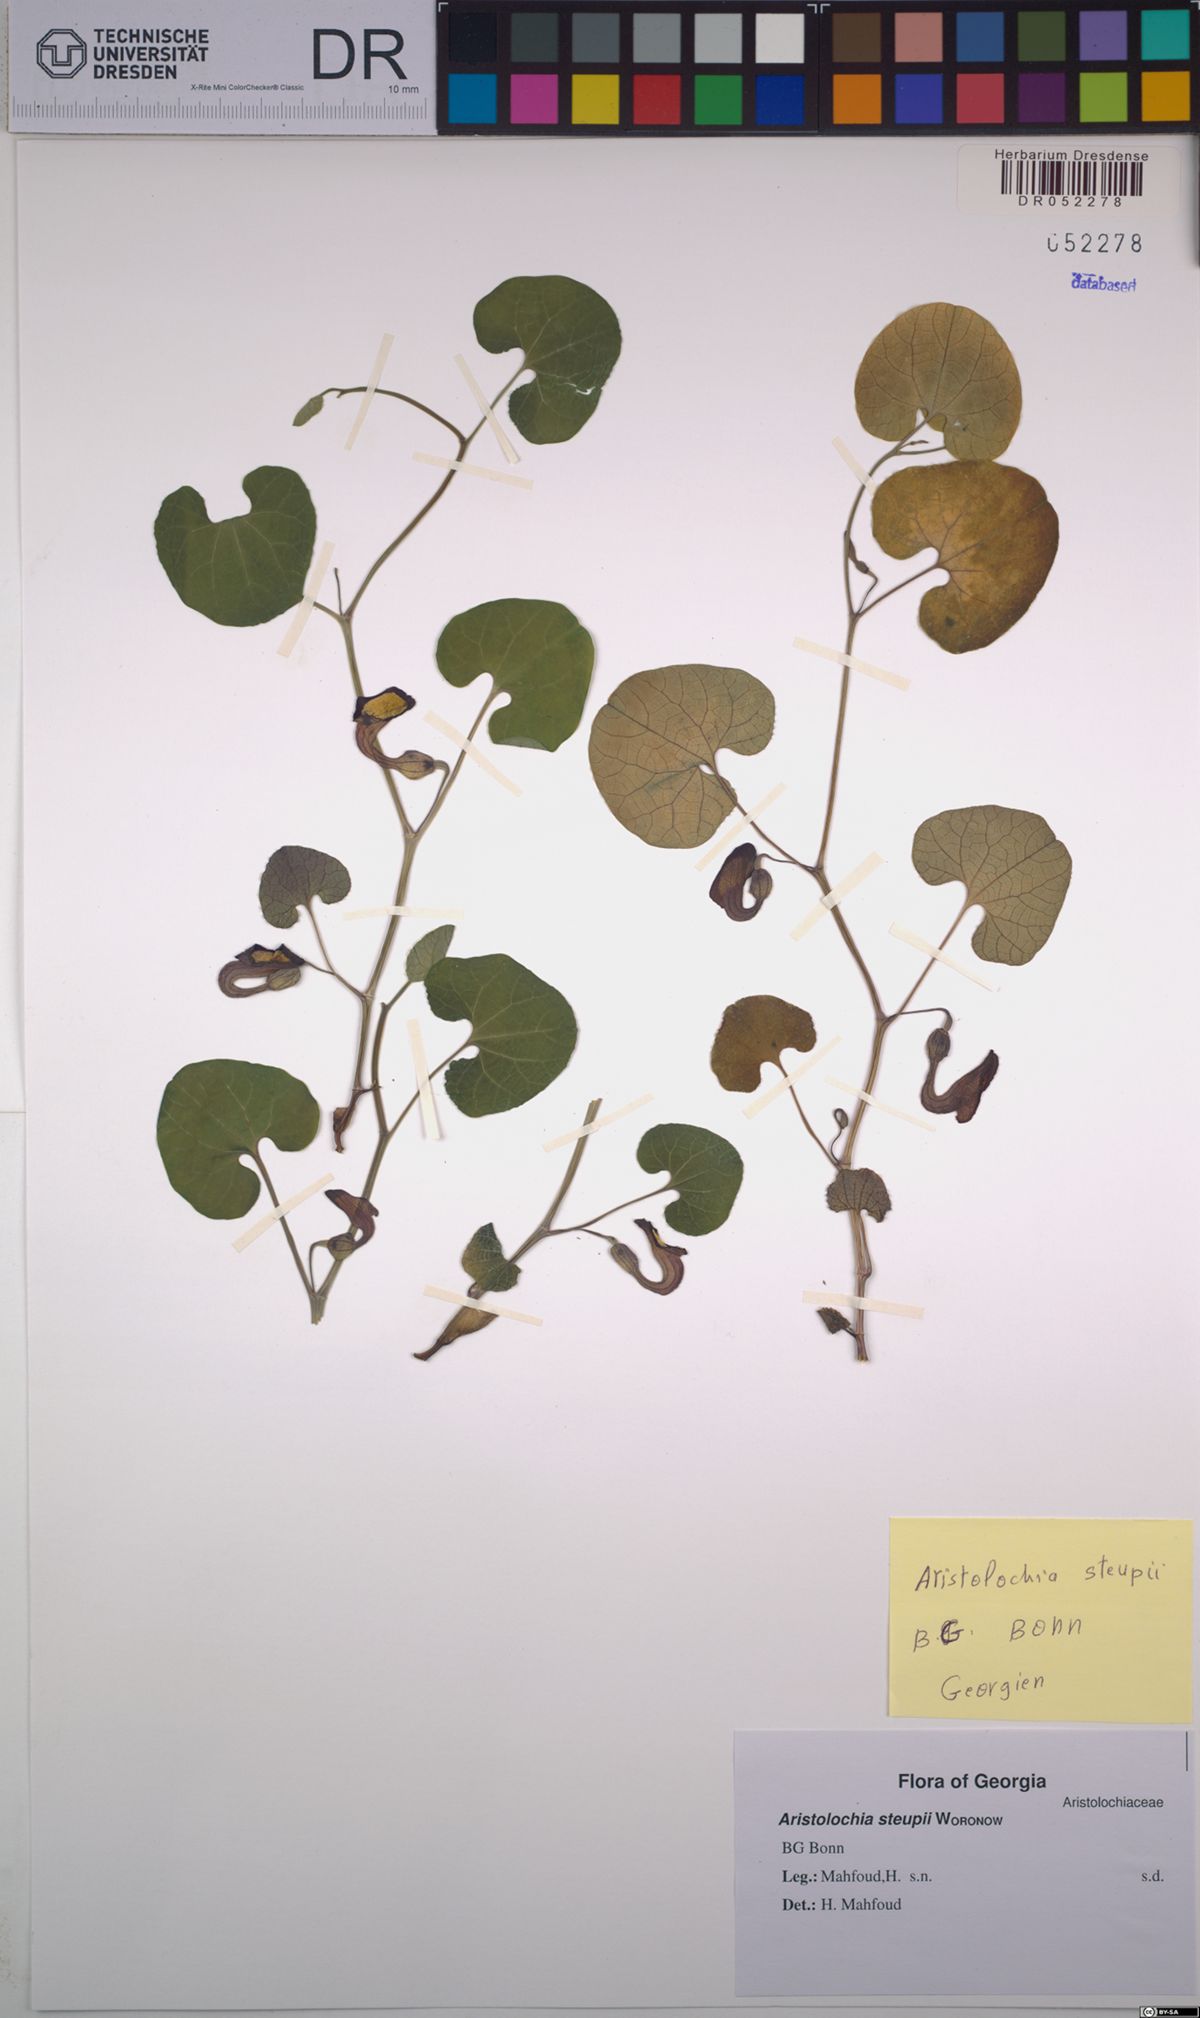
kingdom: Plantae
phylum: Tracheophyta
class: Magnoliopsida
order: Piperales
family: Aristolochiaceae
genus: Aristolochia
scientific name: Aristolochia steupii
